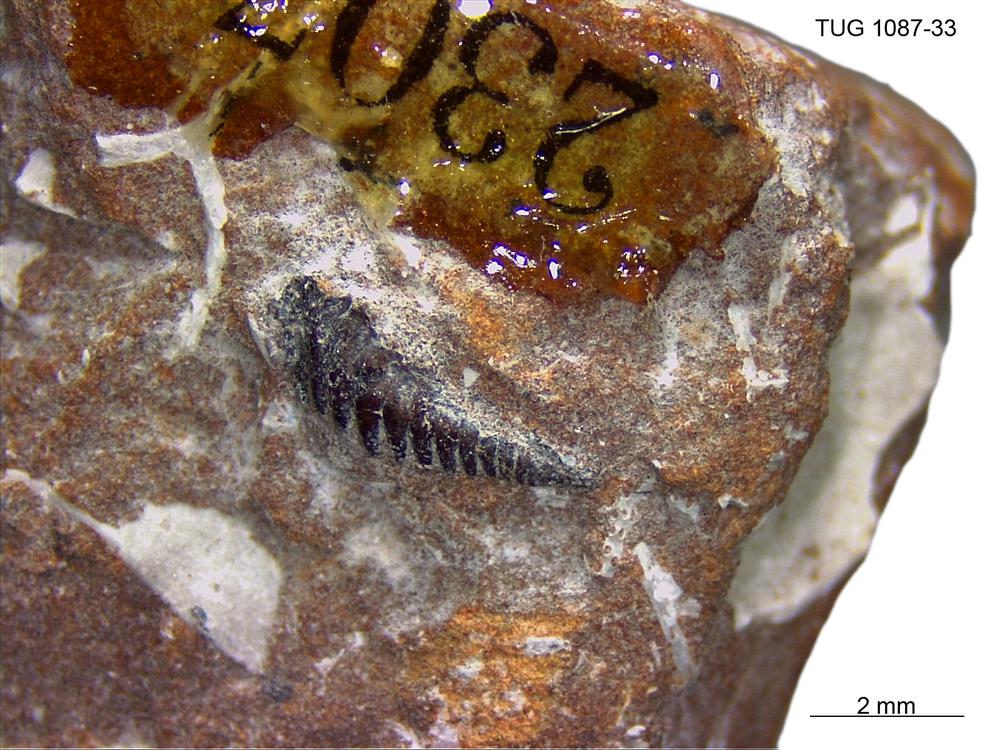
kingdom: Animalia
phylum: Annelida
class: Polychaeta
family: Leodicidae
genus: Eunicites
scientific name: Eunicites
